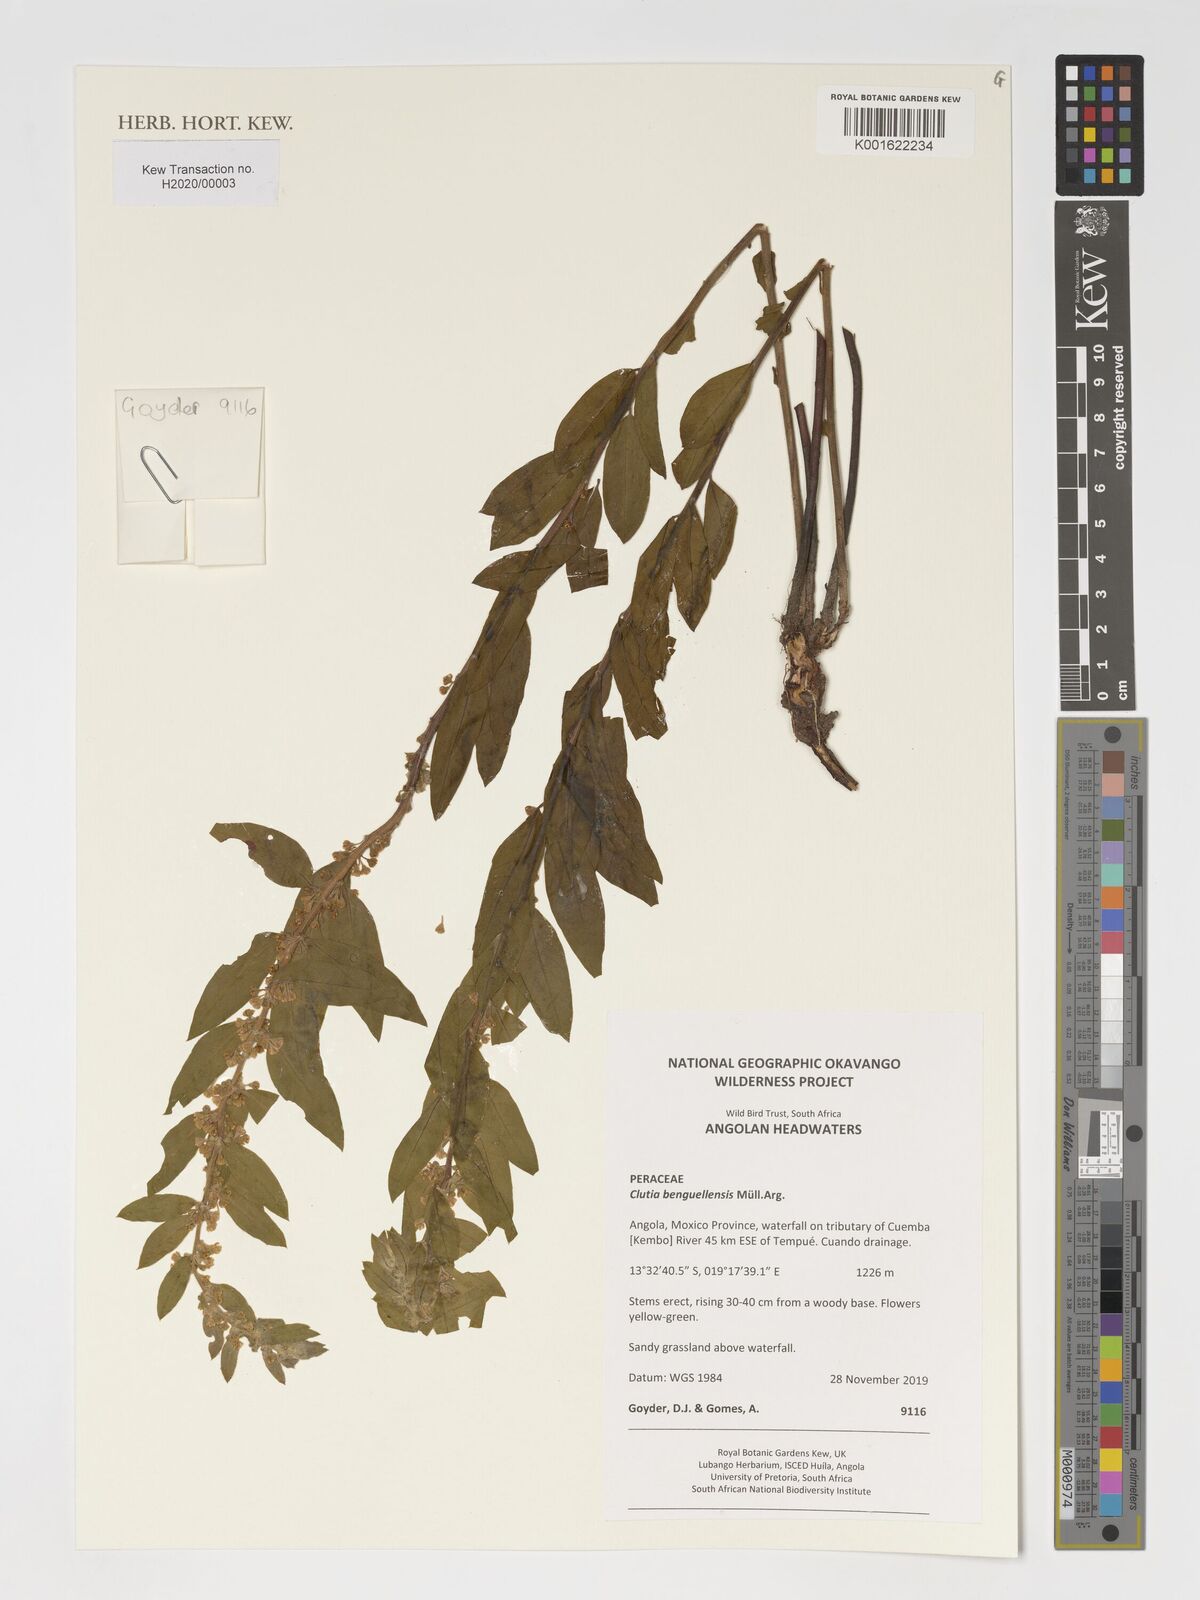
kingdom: Plantae
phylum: Tracheophyta
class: Magnoliopsida
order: Malpighiales
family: Peraceae
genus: Clutia
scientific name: Clutia
